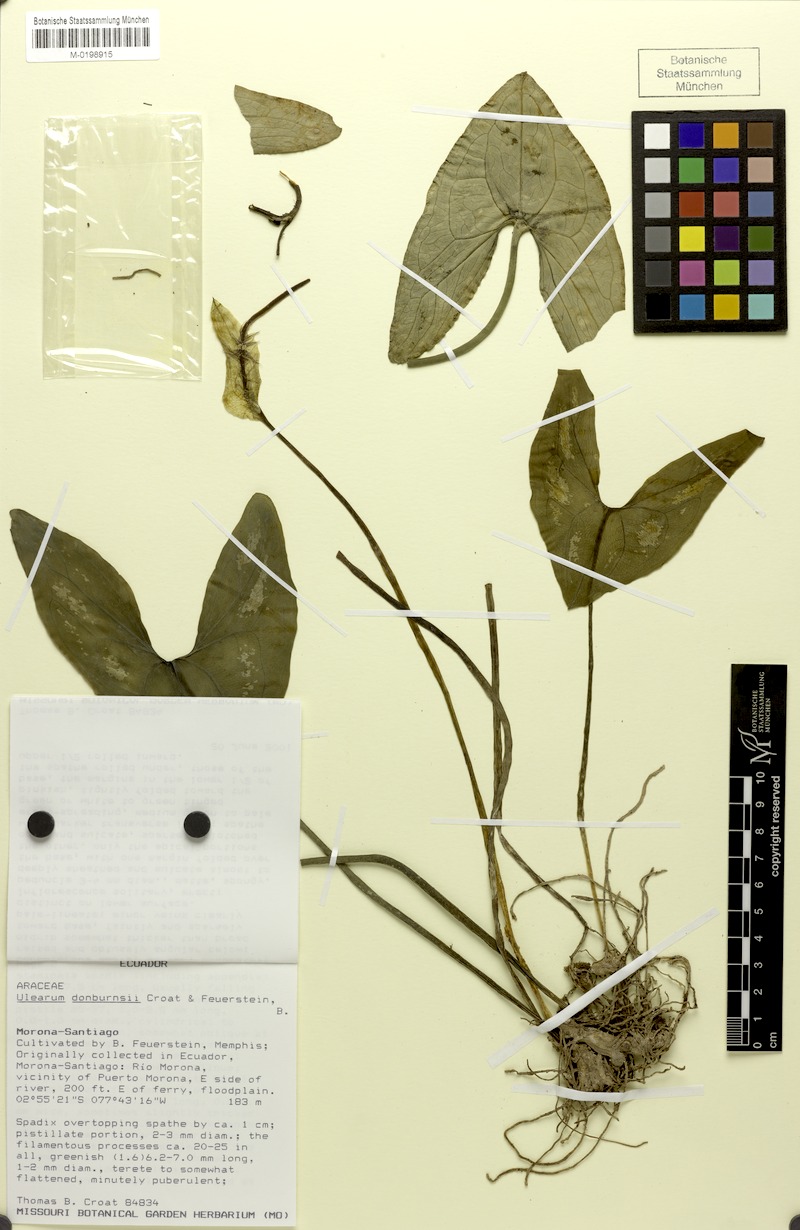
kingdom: Plantae
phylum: Tracheophyta
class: Liliopsida
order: Alismatales
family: Araceae
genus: Ulearum
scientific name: Ulearum donburnsii
